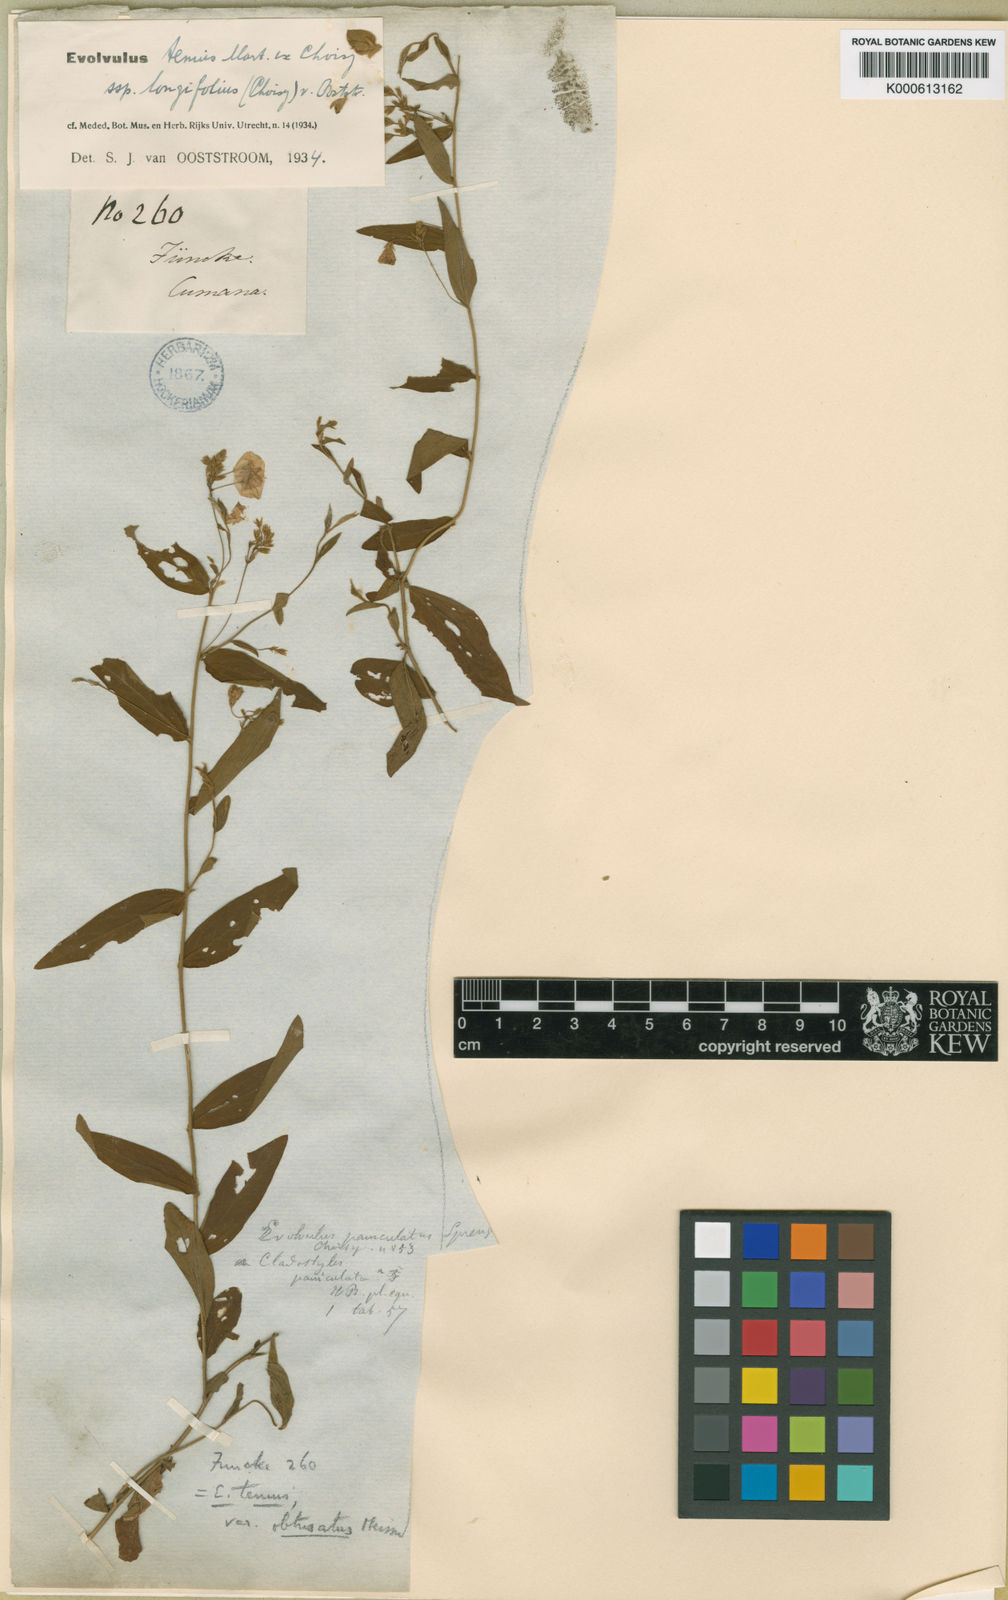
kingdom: Plantae
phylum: Tracheophyta
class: Magnoliopsida
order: Solanales
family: Convolvulaceae
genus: Evolvulus
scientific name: Evolvulus tenuis
